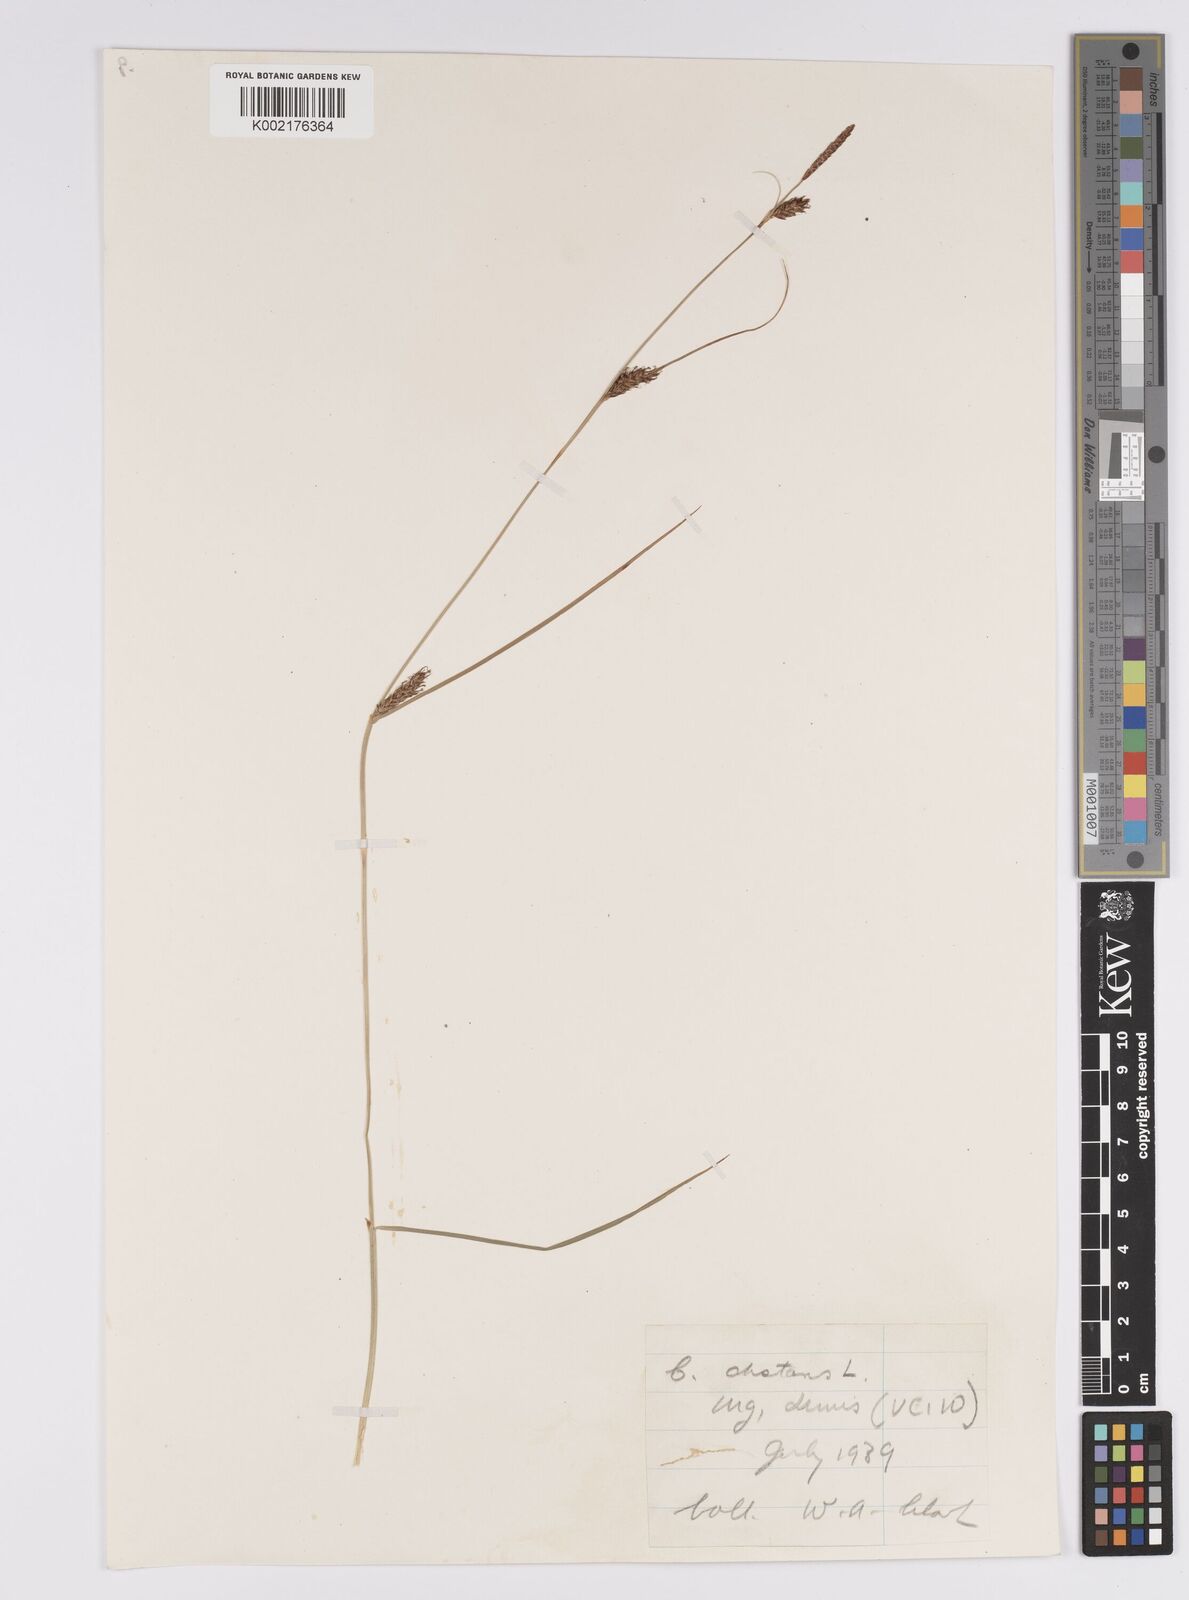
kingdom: Plantae
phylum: Tracheophyta
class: Liliopsida
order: Poales
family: Cyperaceae
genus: Carex
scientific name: Carex distans
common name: Distant sedge
